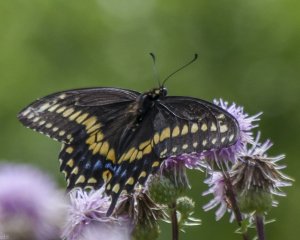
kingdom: Animalia
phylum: Arthropoda
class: Insecta
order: Lepidoptera
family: Papilionidae
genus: Papilio
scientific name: Papilio polyxenes
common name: Black Swallowtail
